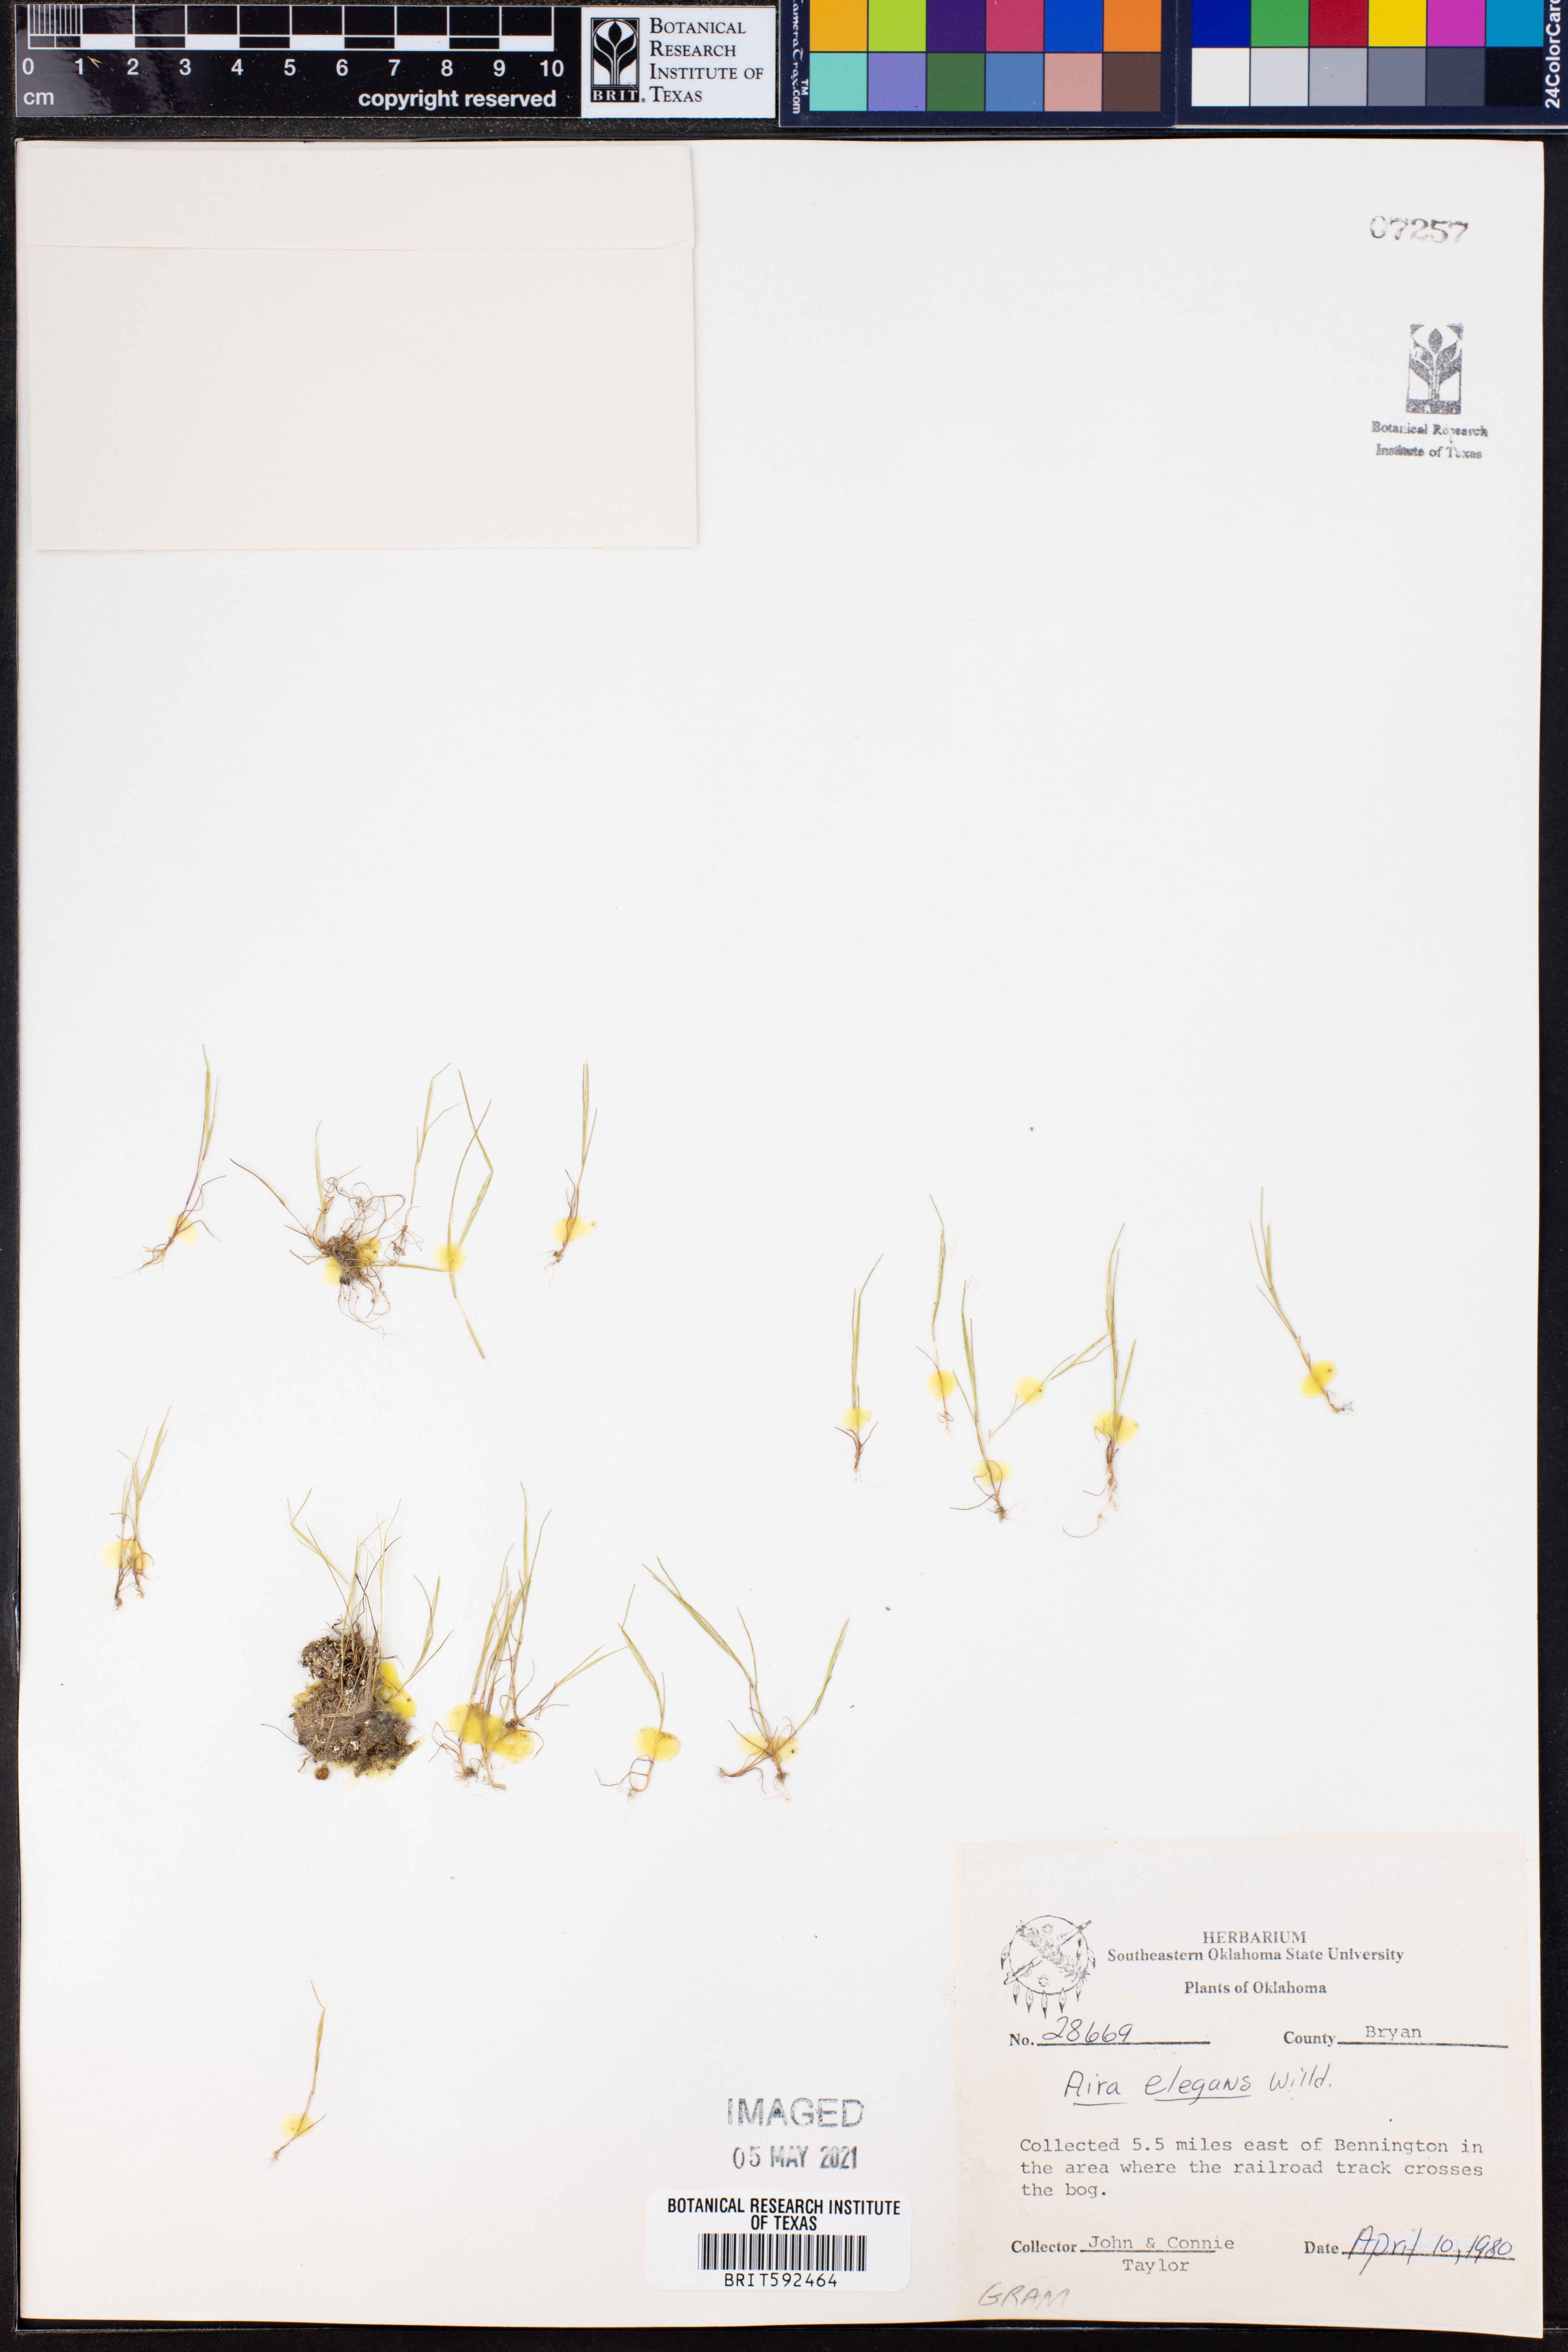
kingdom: Plantae
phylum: Tracheophyta
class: Liliopsida
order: Poales
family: Poaceae
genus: Aira
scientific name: Aira elegans
